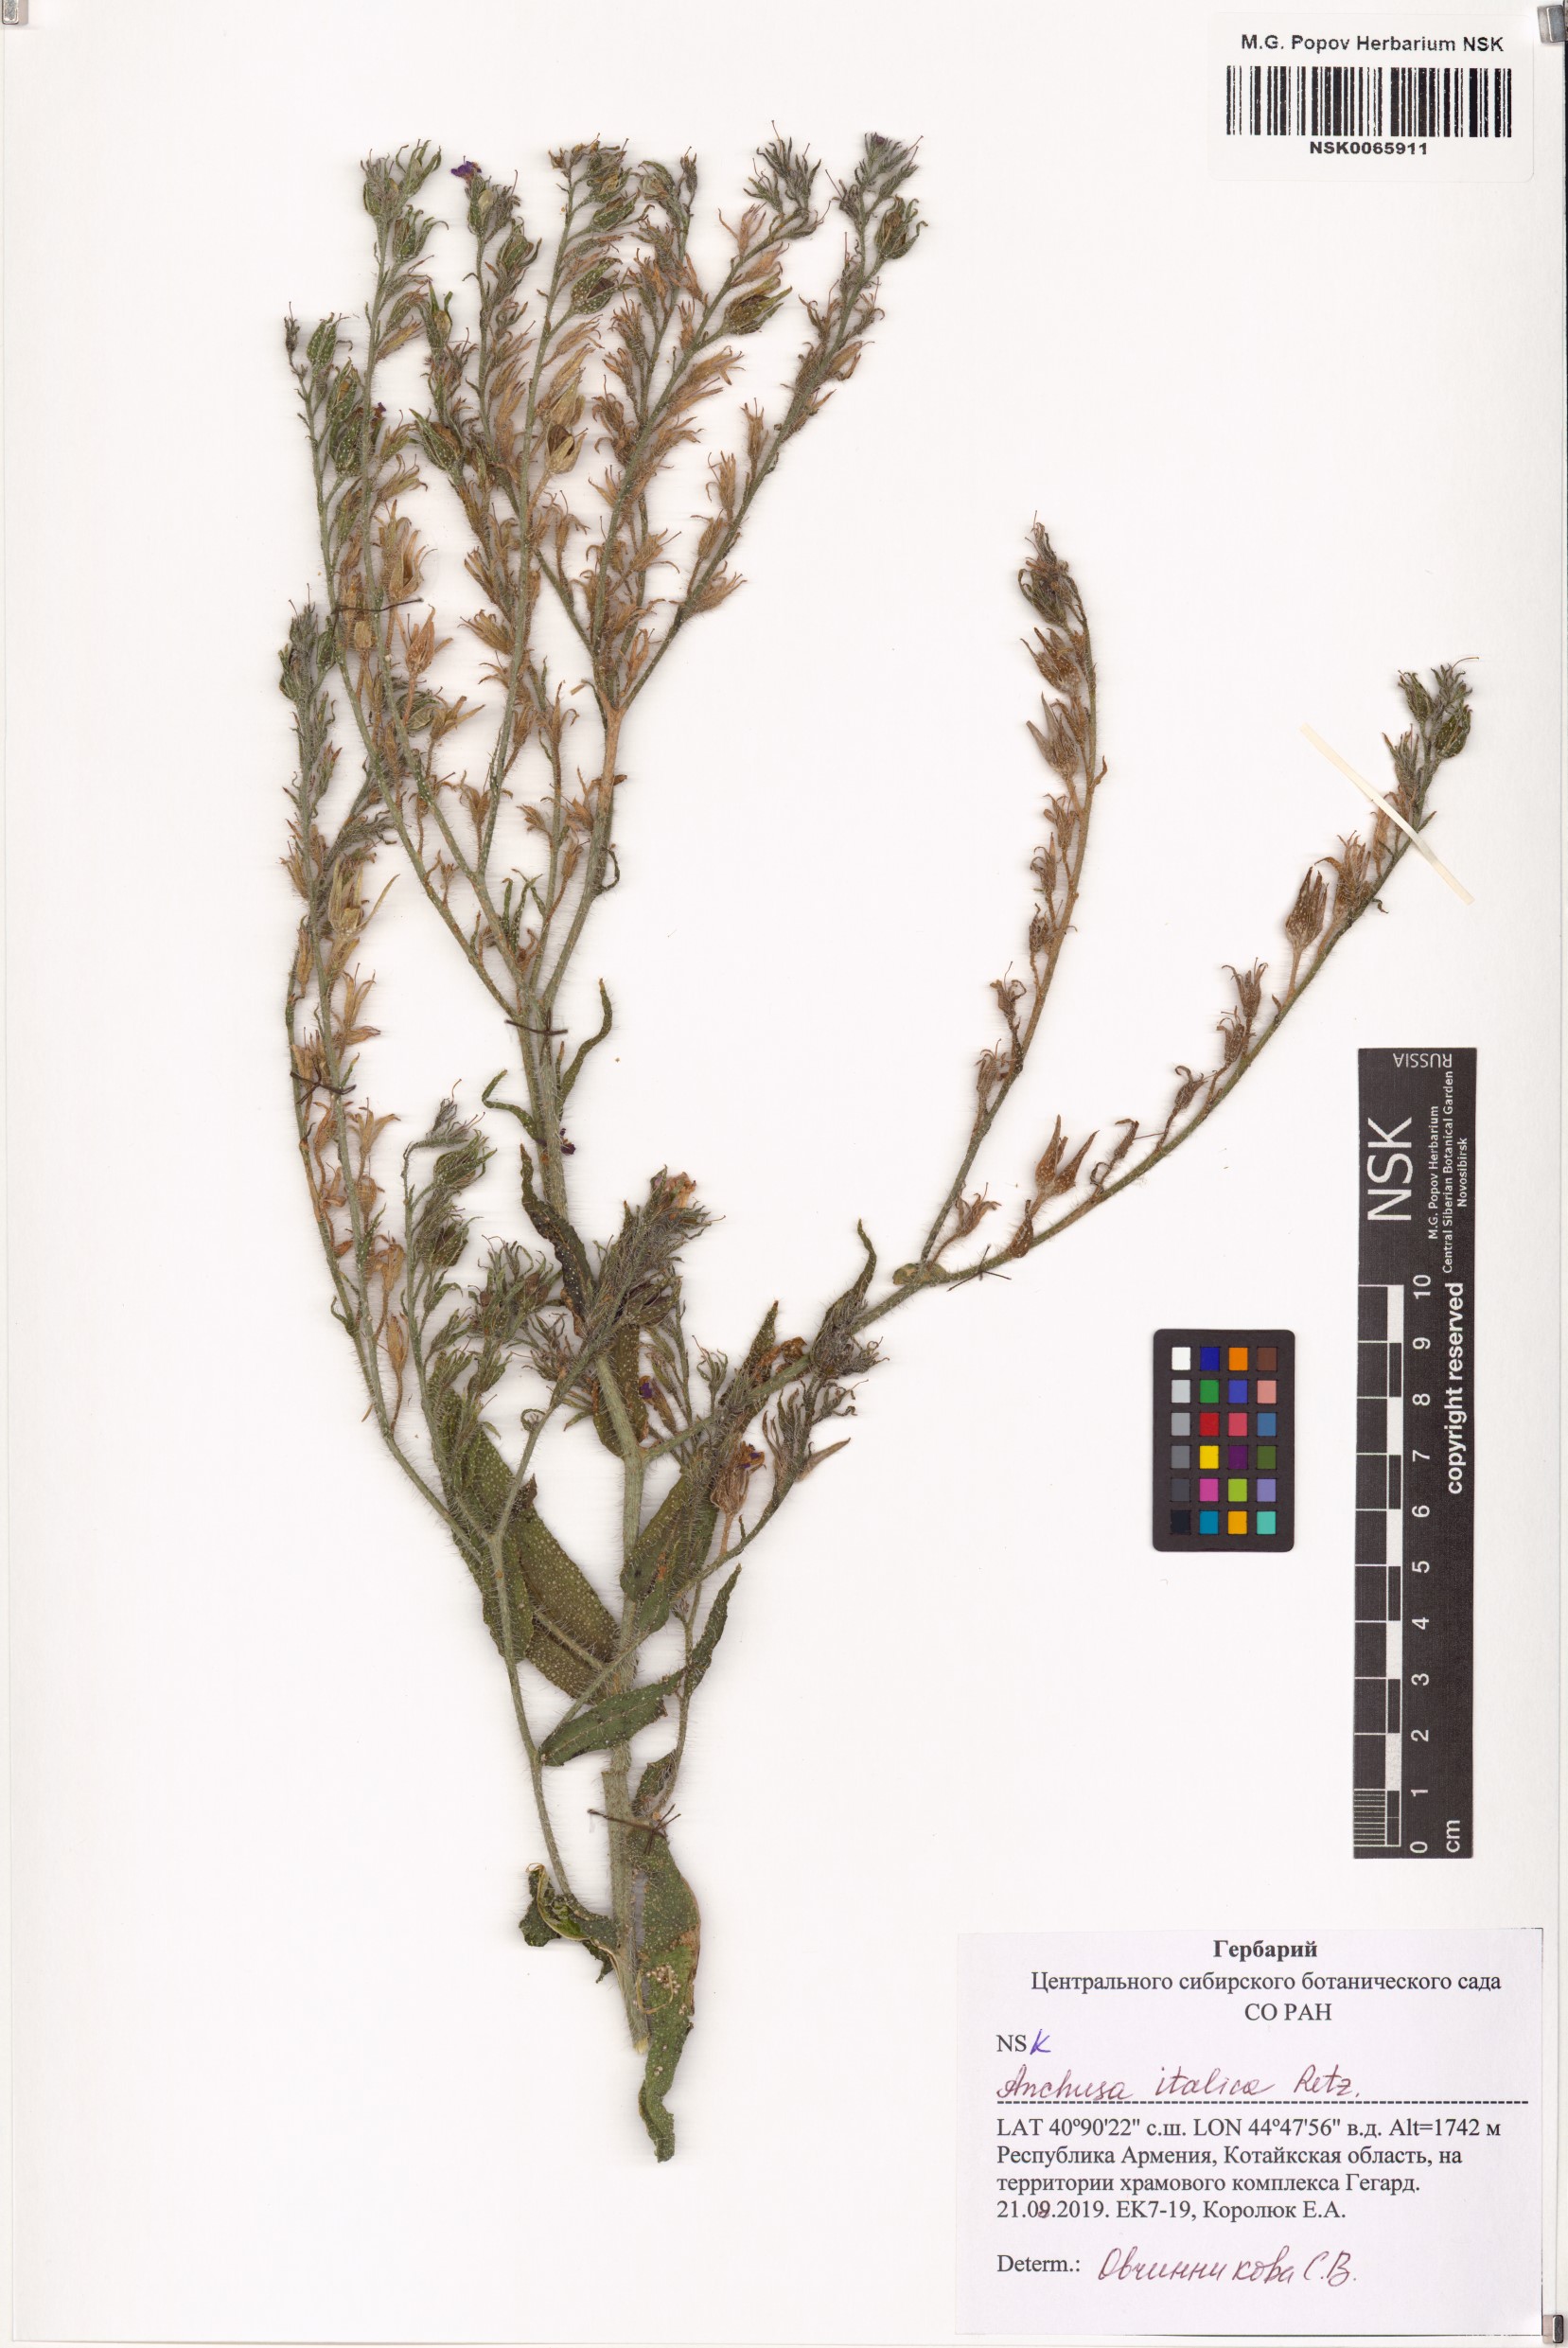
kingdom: Plantae
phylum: Tracheophyta
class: Magnoliopsida
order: Boraginales
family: Boraginaceae
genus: Anchusa
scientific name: Anchusa azurea
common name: Garden anchusa
